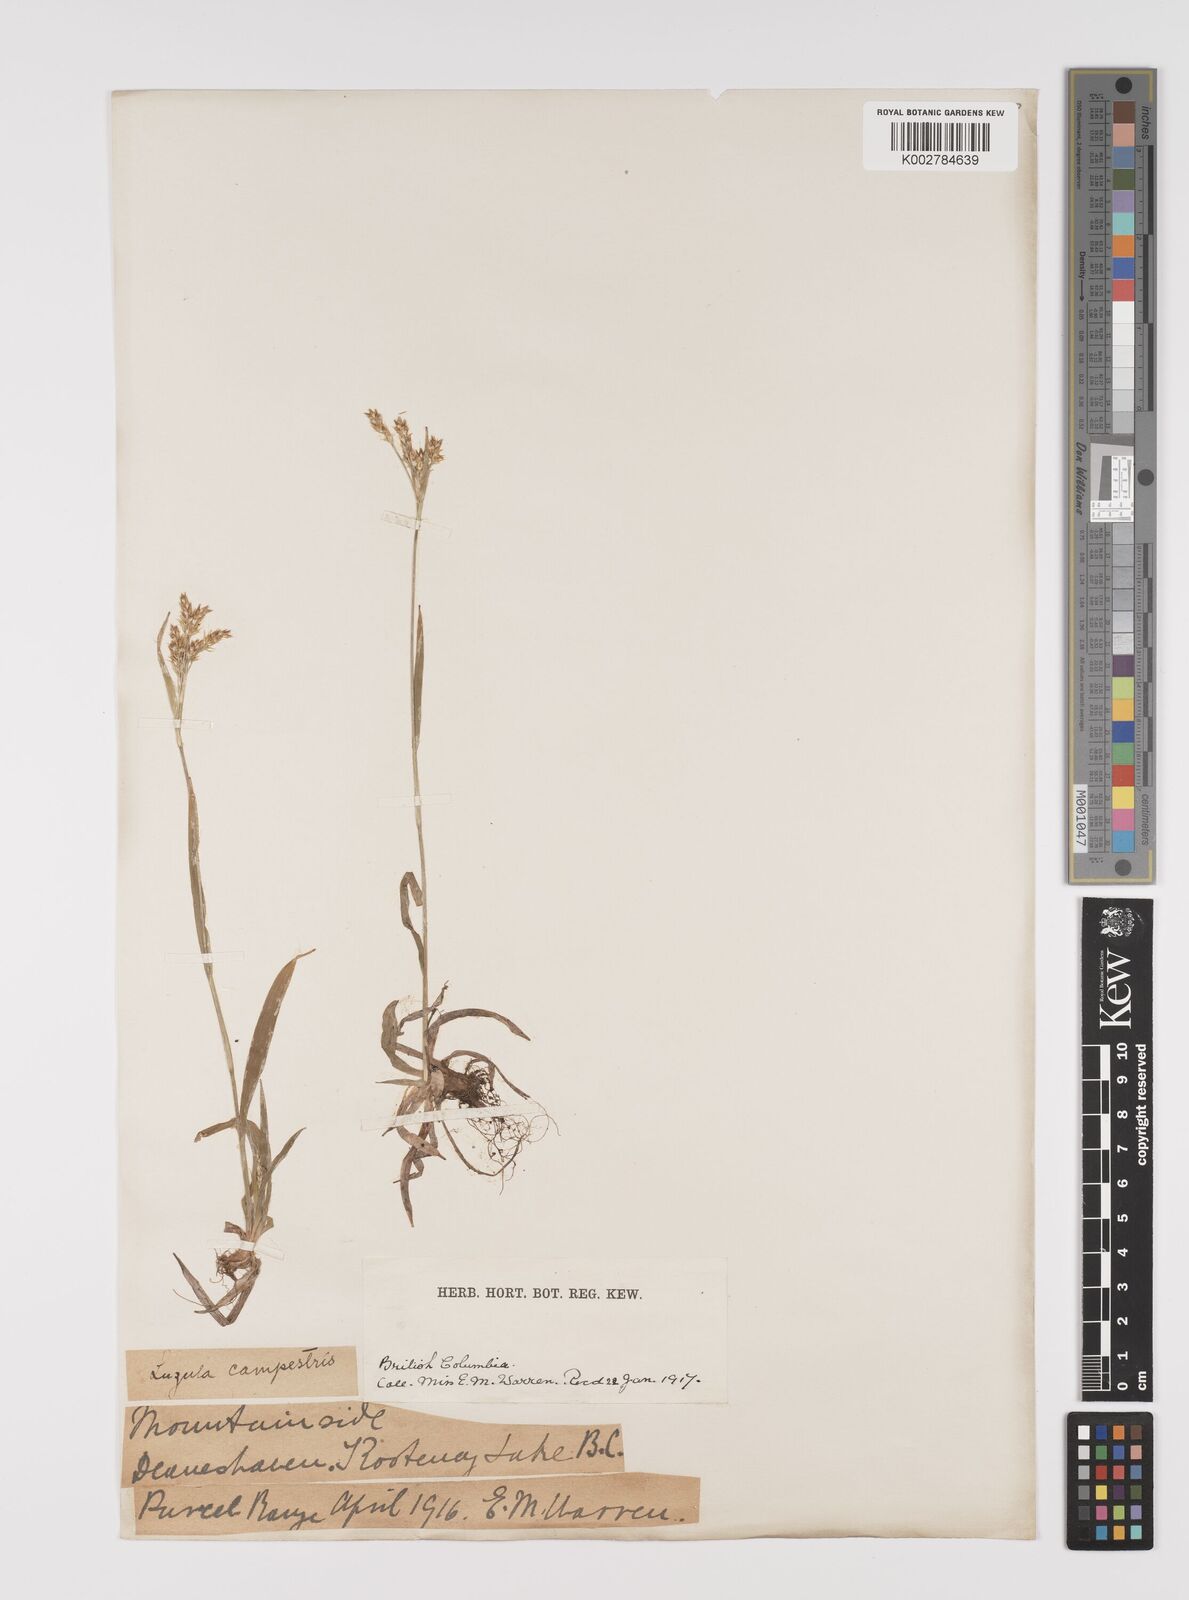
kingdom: Plantae
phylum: Tracheophyta
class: Liliopsida
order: Poales
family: Juncaceae
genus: Luzula
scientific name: Luzula campestris
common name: Field wood-rush
